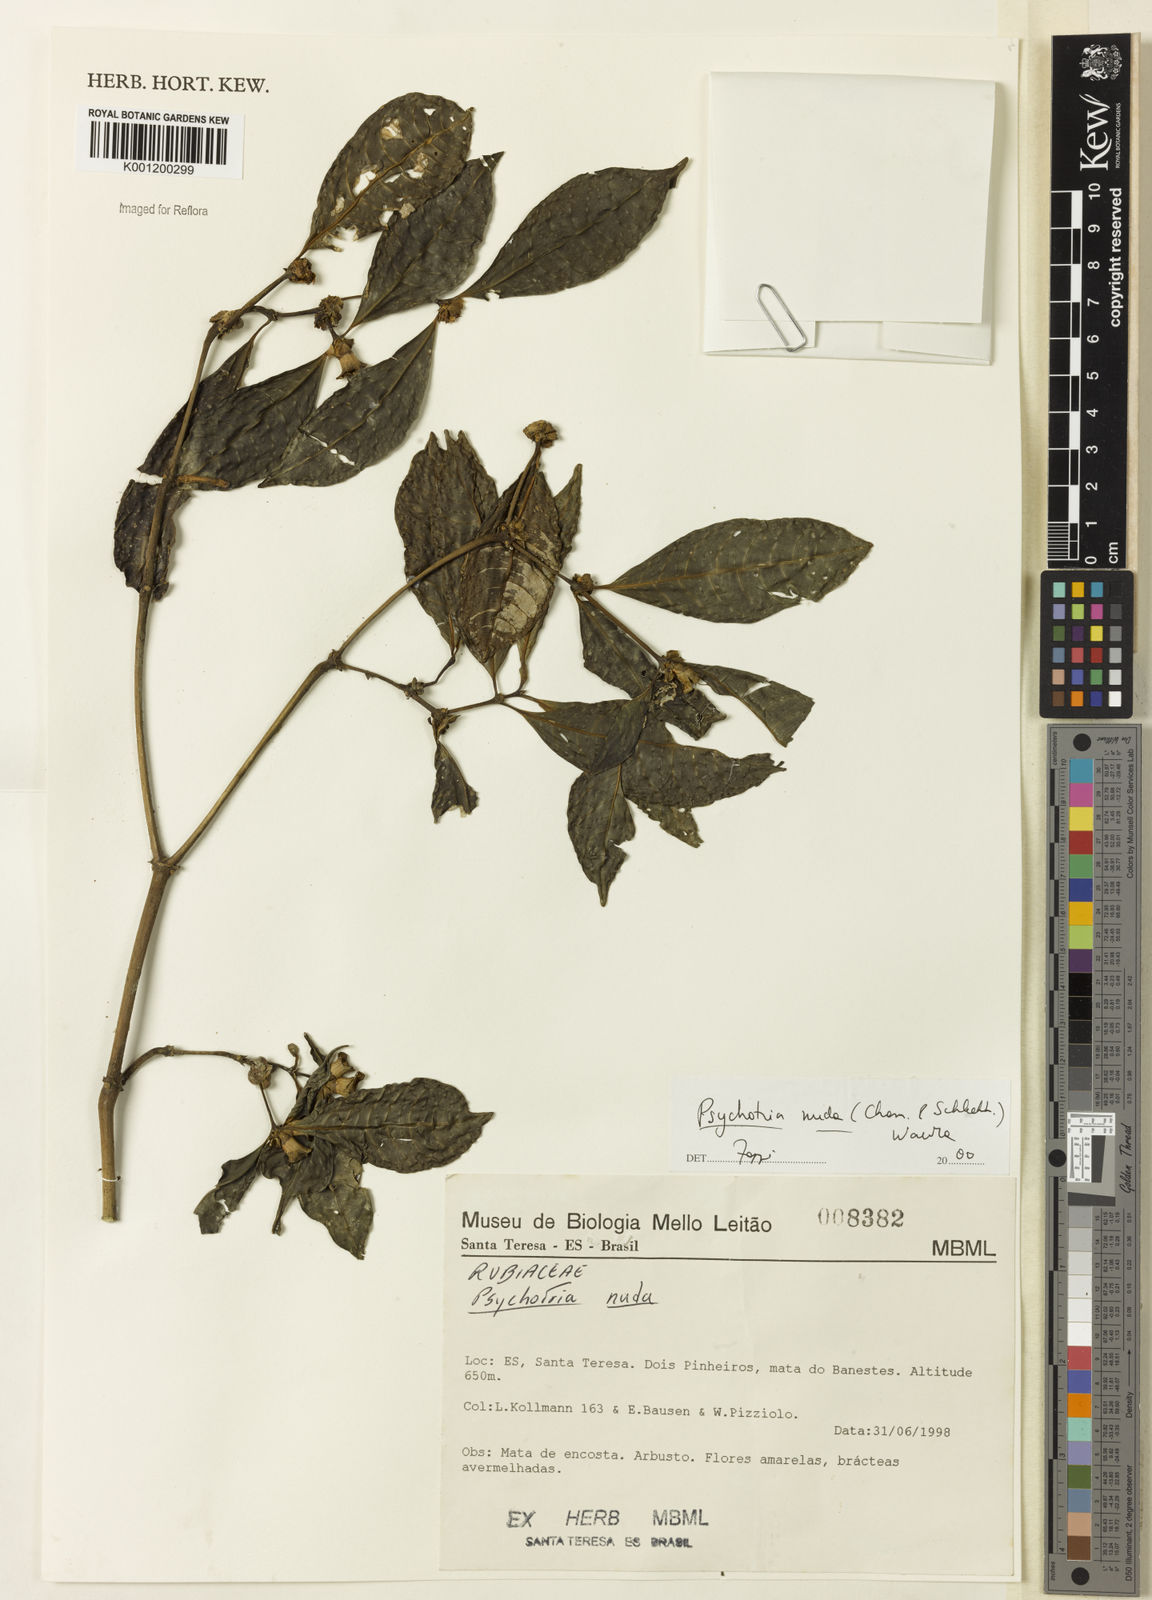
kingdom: Plantae
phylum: Tracheophyta
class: Magnoliopsida
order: Gentianales
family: Rubiaceae
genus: Psychotria
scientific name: Psychotria nuda
